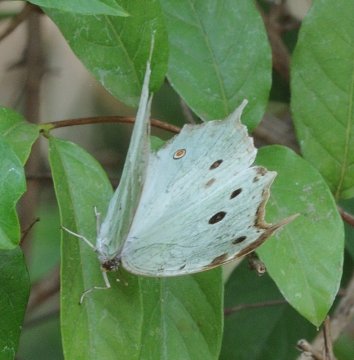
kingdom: Animalia
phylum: Arthropoda
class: Insecta
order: Lepidoptera
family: Nymphalidae
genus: Salamis
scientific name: Salamis Protogoniomorpha parhassus
